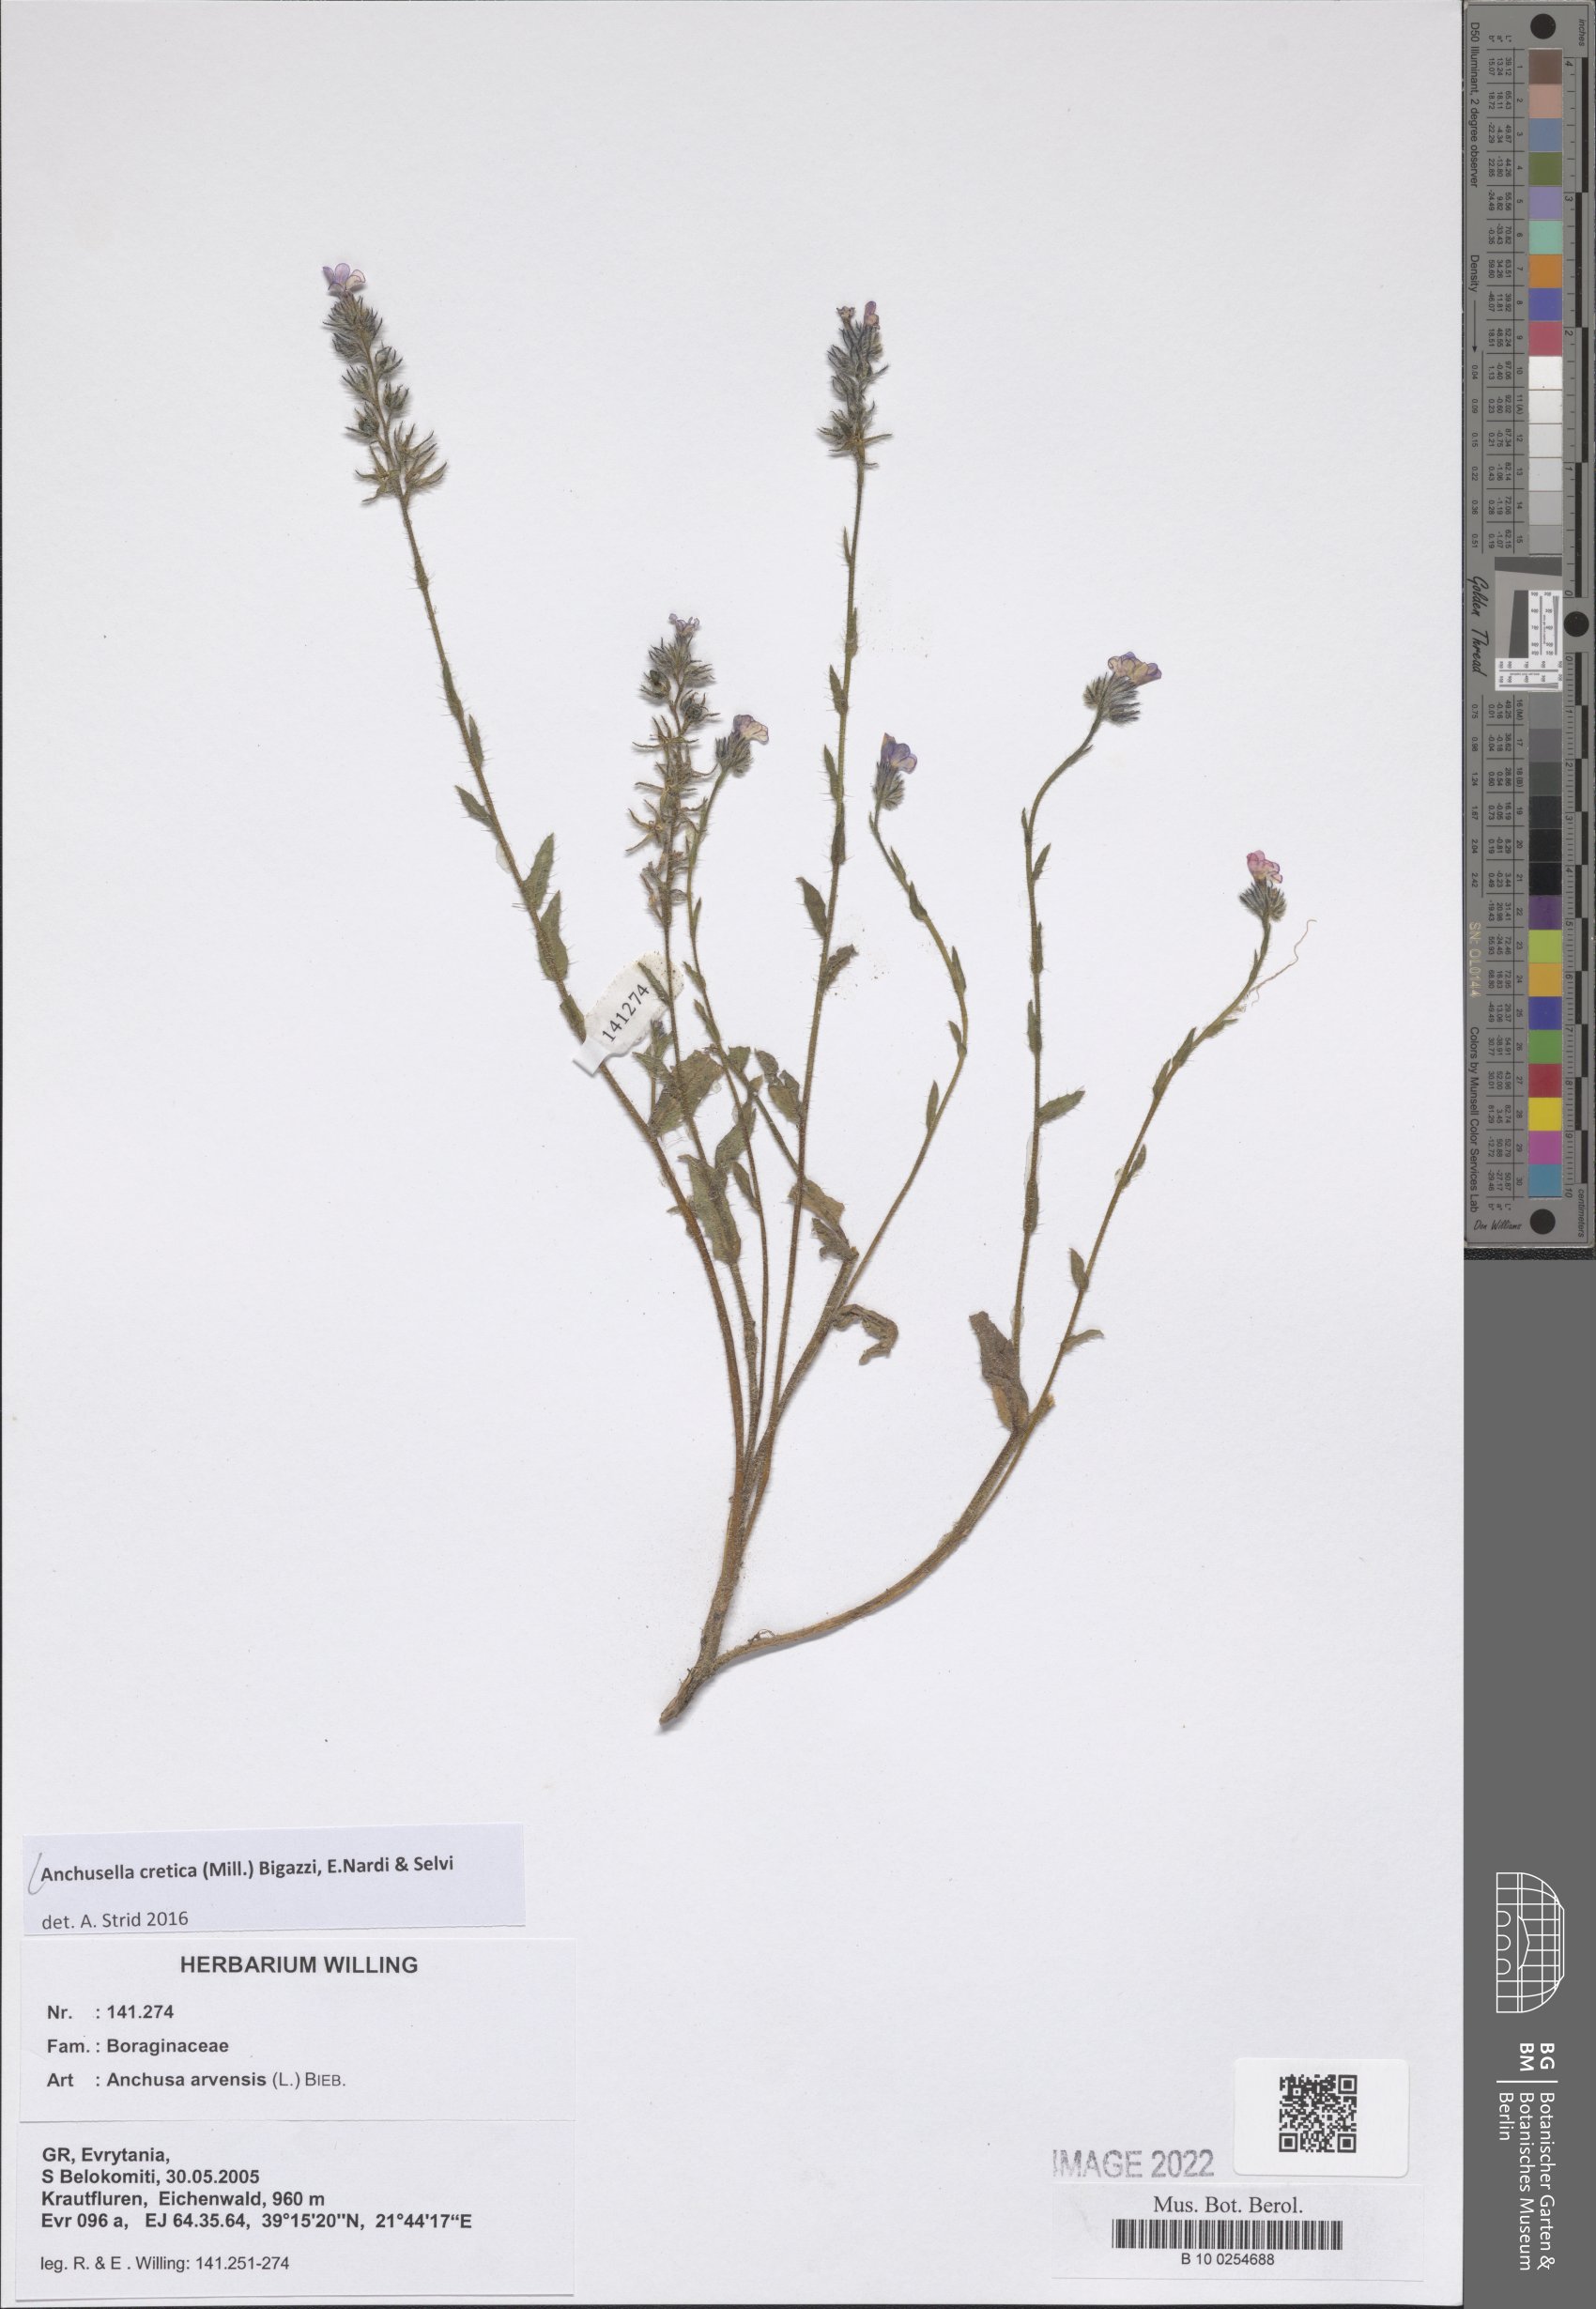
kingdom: Plantae
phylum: Tracheophyta
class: Magnoliopsida
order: Boraginales
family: Boraginaceae
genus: Anchusella
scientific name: Anchusella cretica
